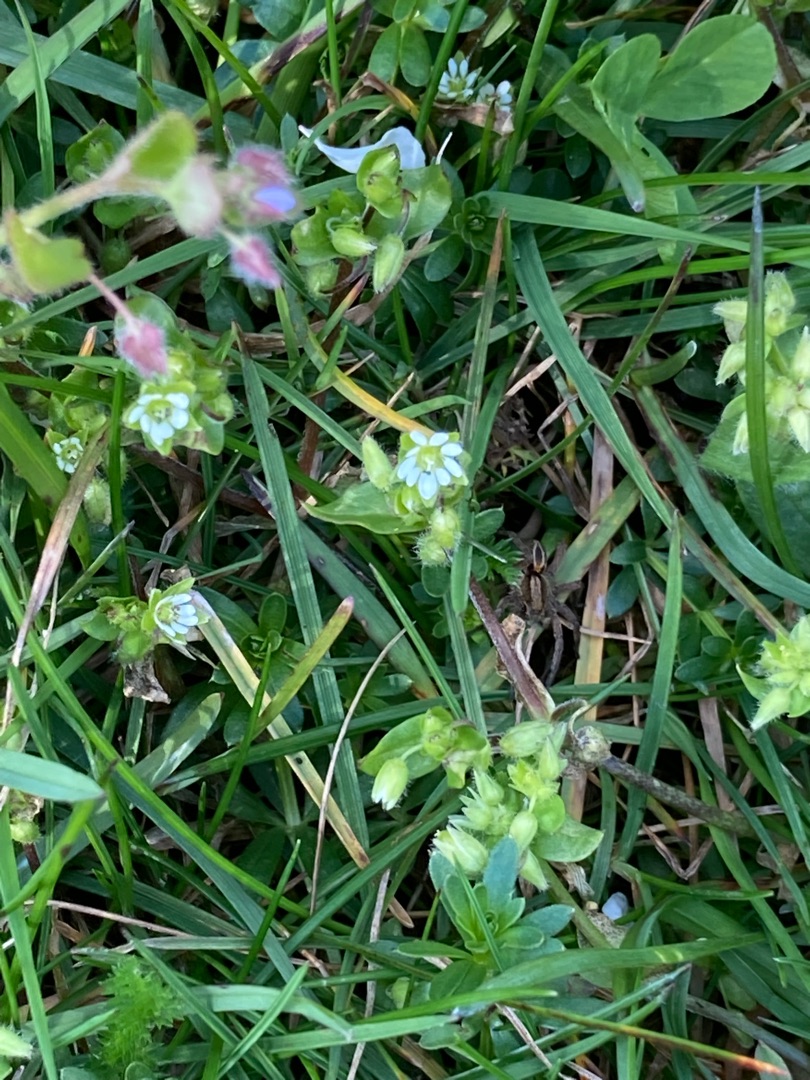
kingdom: Plantae
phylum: Tracheophyta
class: Magnoliopsida
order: Caryophyllales
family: Caryophyllaceae
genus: Stellaria
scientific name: Stellaria media
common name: Almindelig fuglegræs
